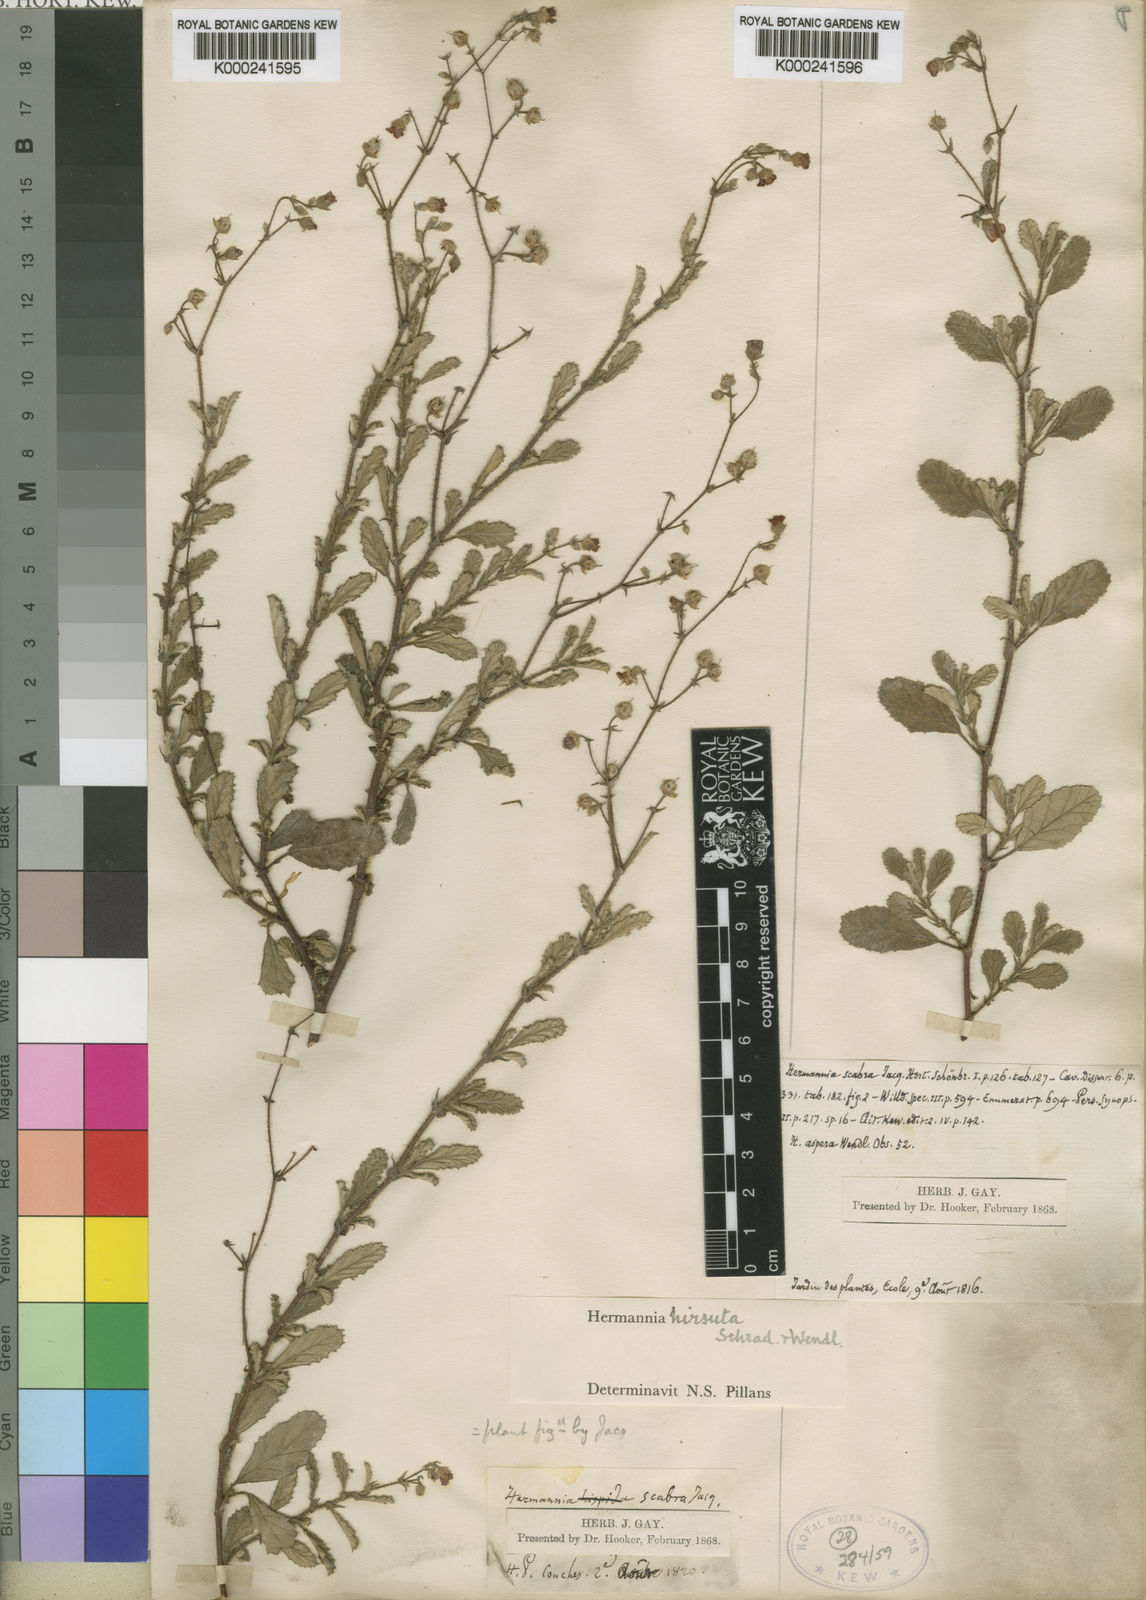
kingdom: Plantae
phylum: Tracheophyta
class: Magnoliopsida
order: Malvales
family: Malvaceae
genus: Hermannia
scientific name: Hermannia repetenda
